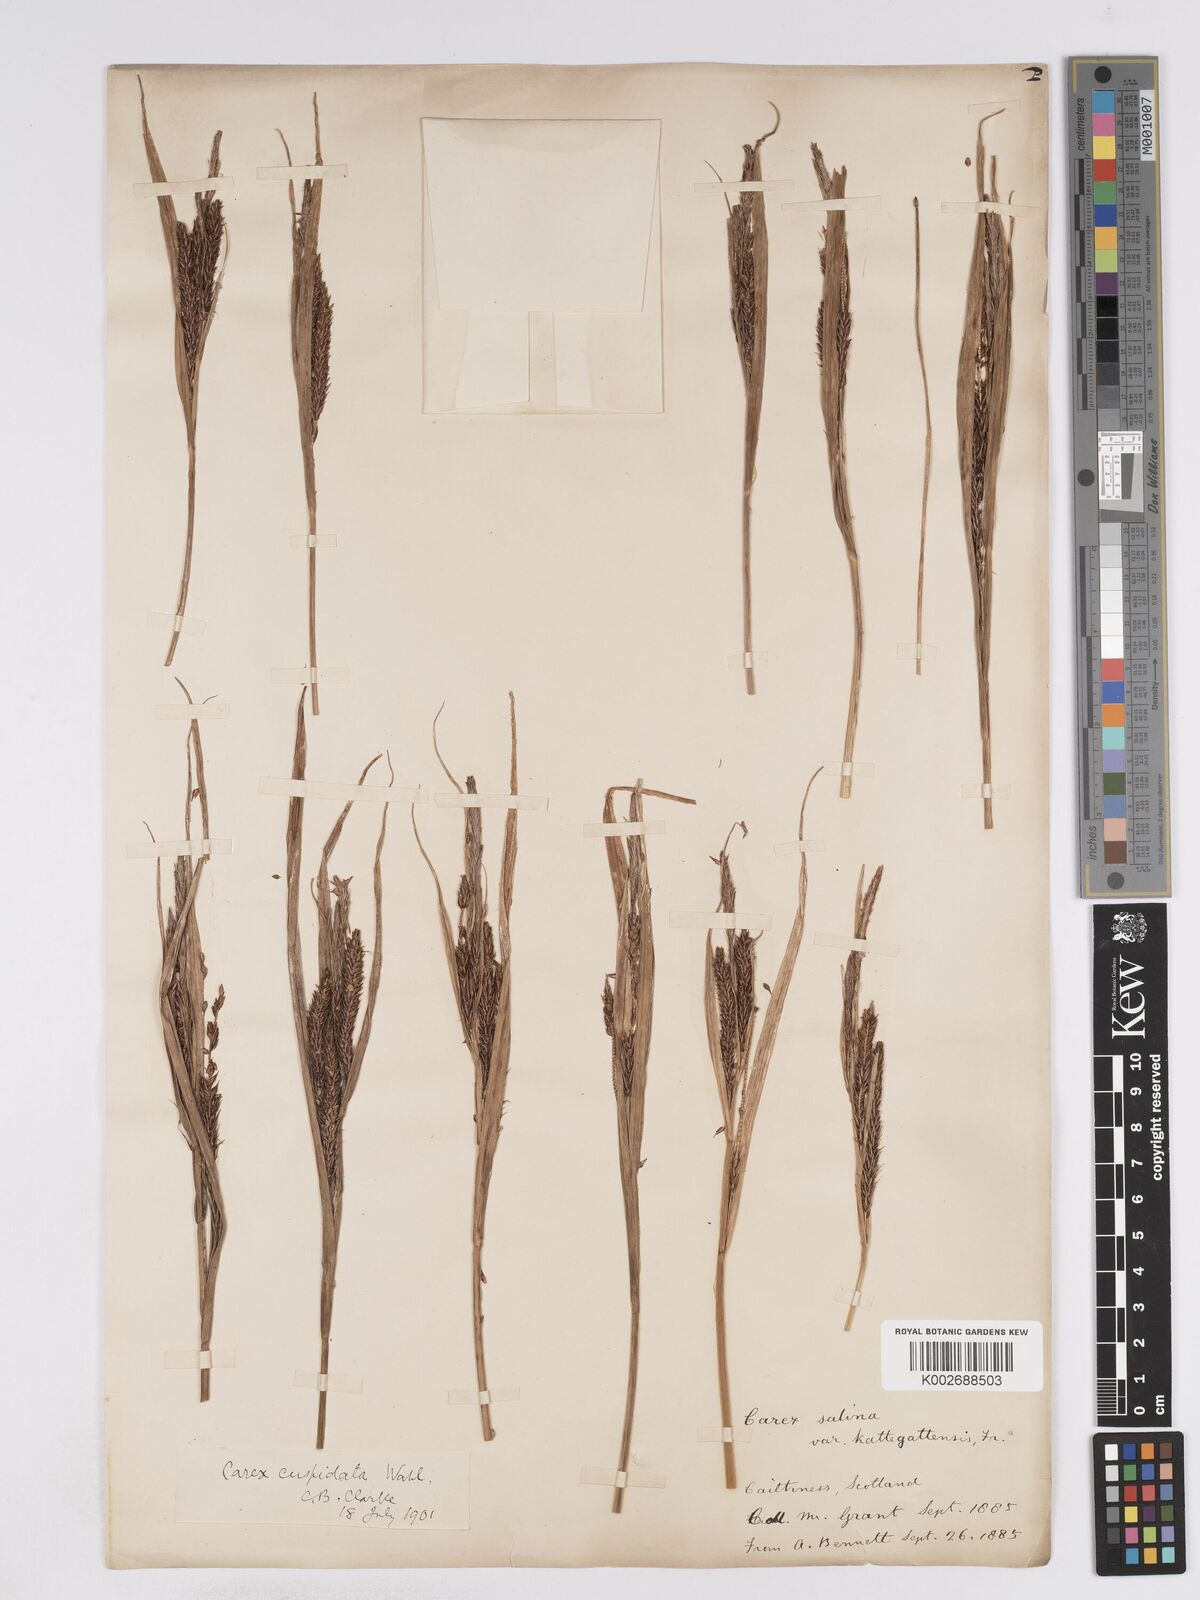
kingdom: Plantae
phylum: Tracheophyta
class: Liliopsida
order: Poales
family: Cyperaceae
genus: Carex
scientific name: Carex recta
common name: Estuarine sedge
